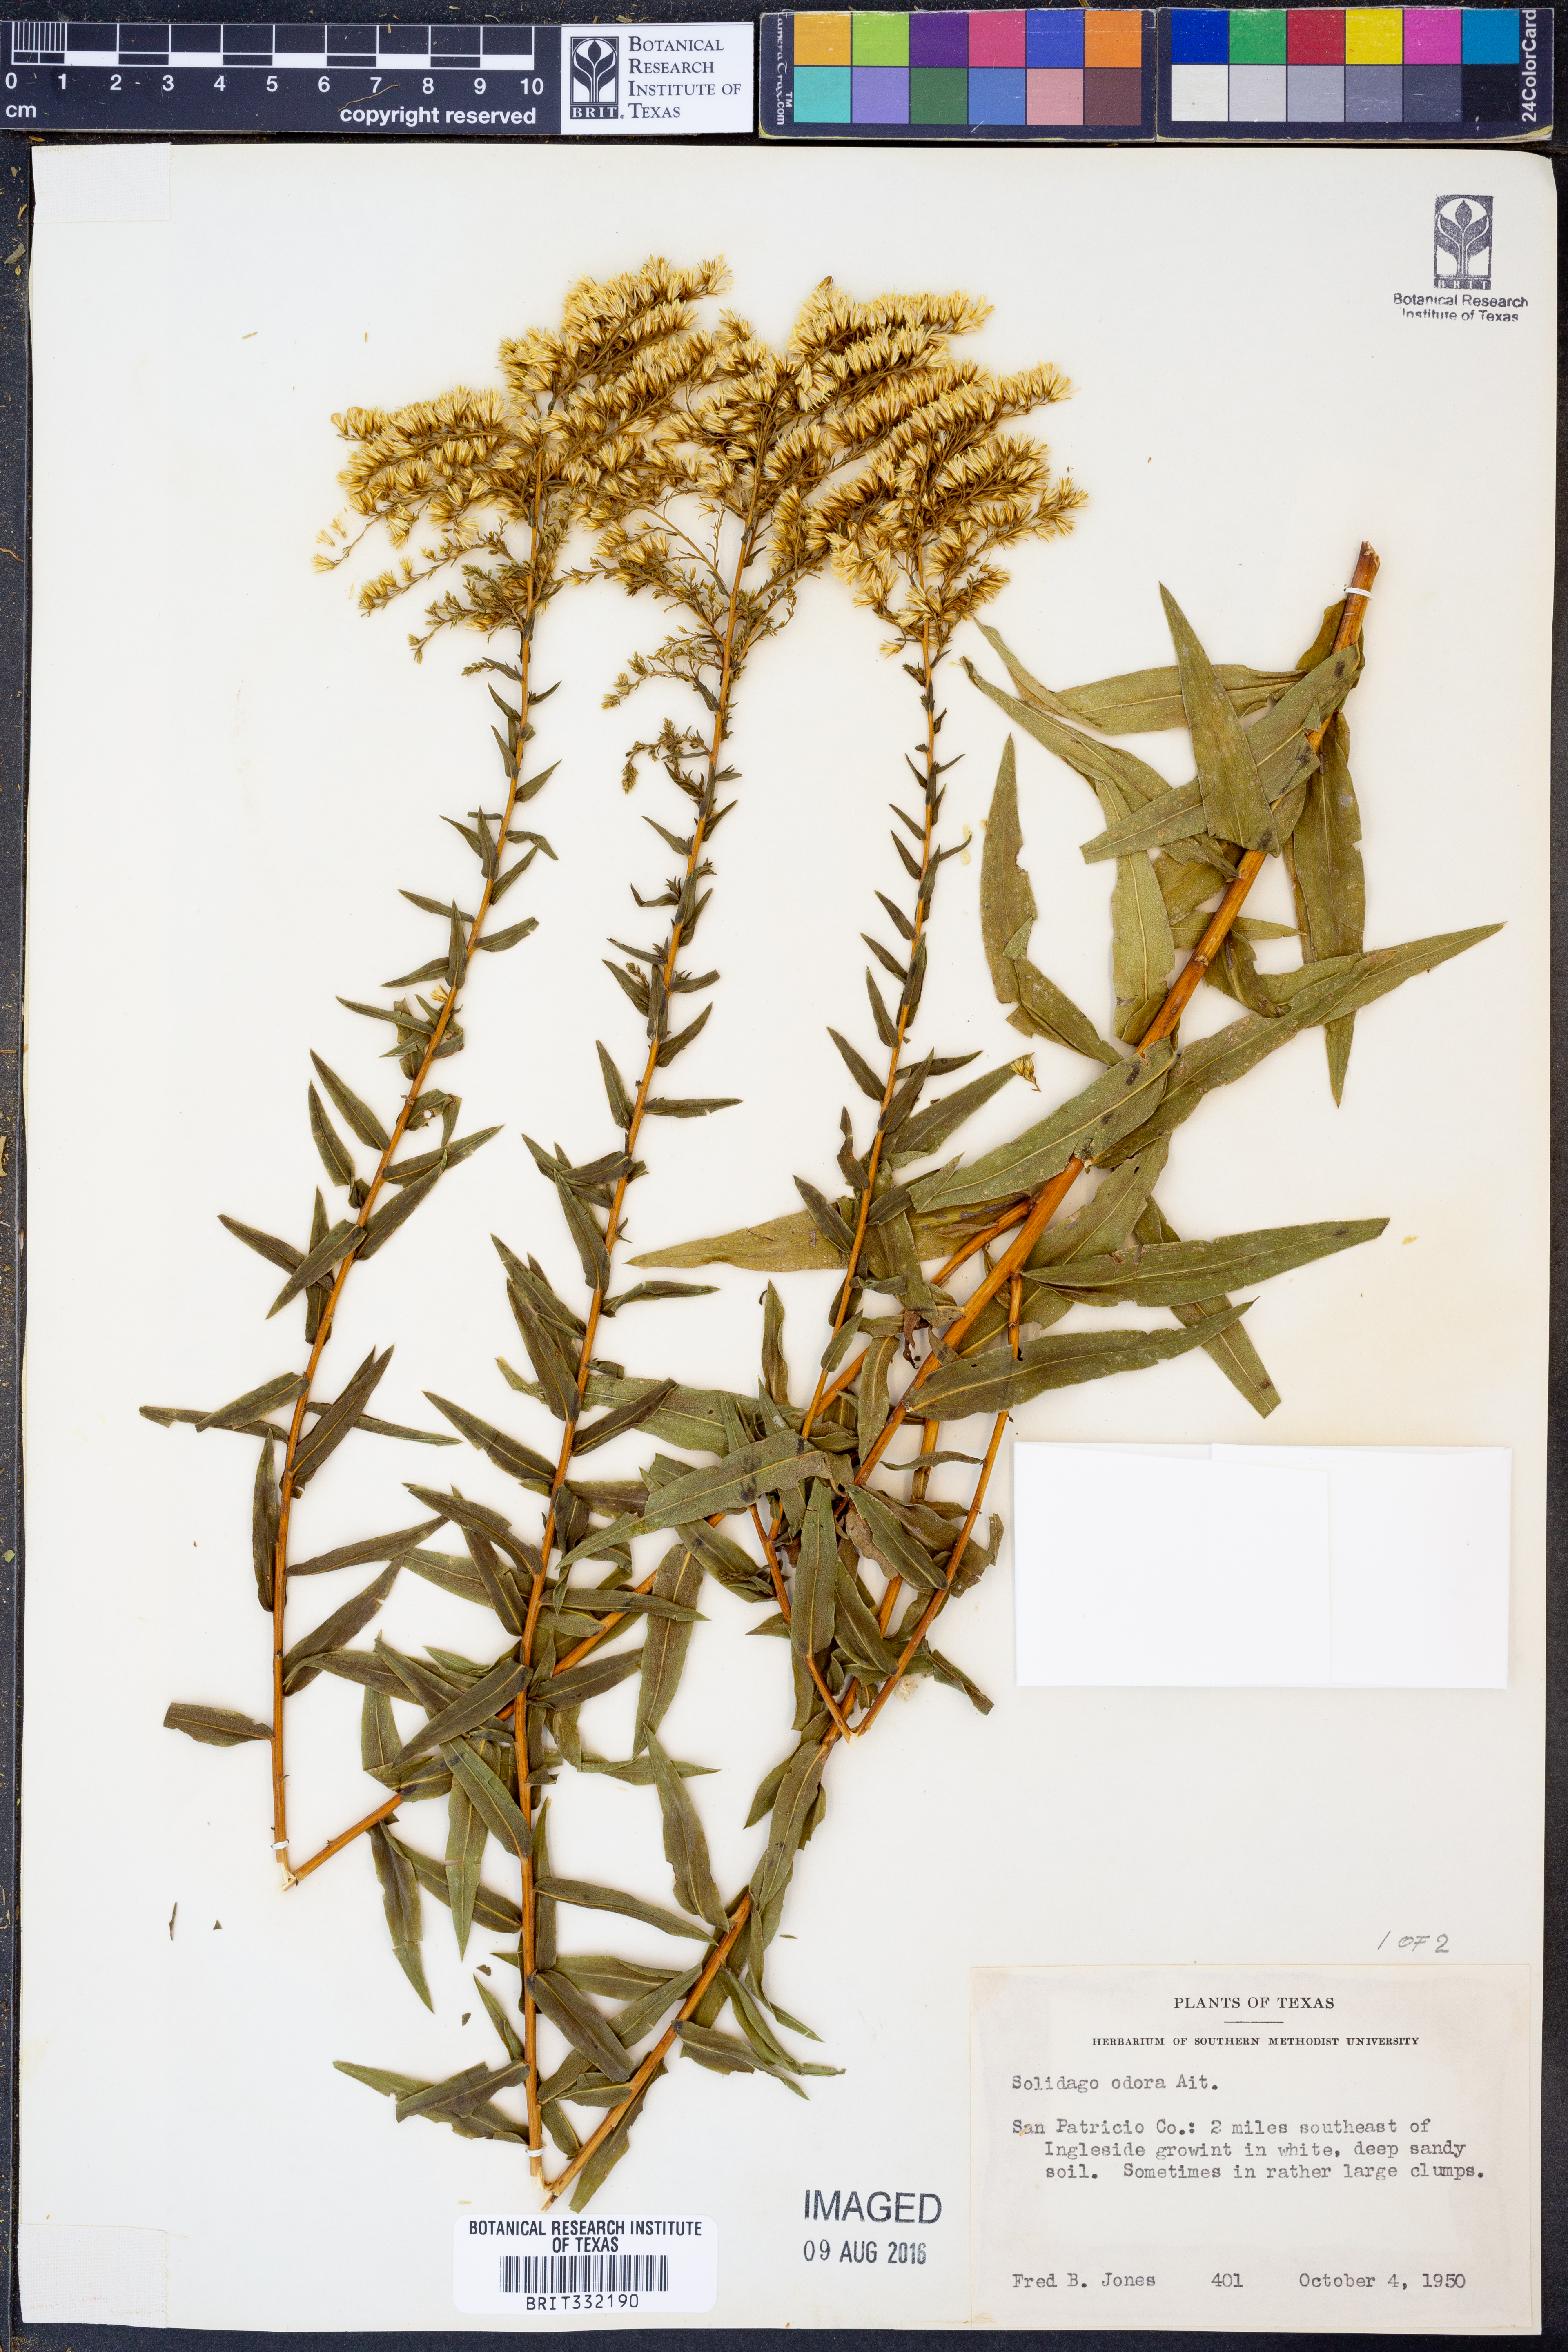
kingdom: Plantae
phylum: Tracheophyta
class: Magnoliopsida
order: Asterales
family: Asteraceae
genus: Solidago
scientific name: Solidago odora
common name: Anise-scented goldenrod
